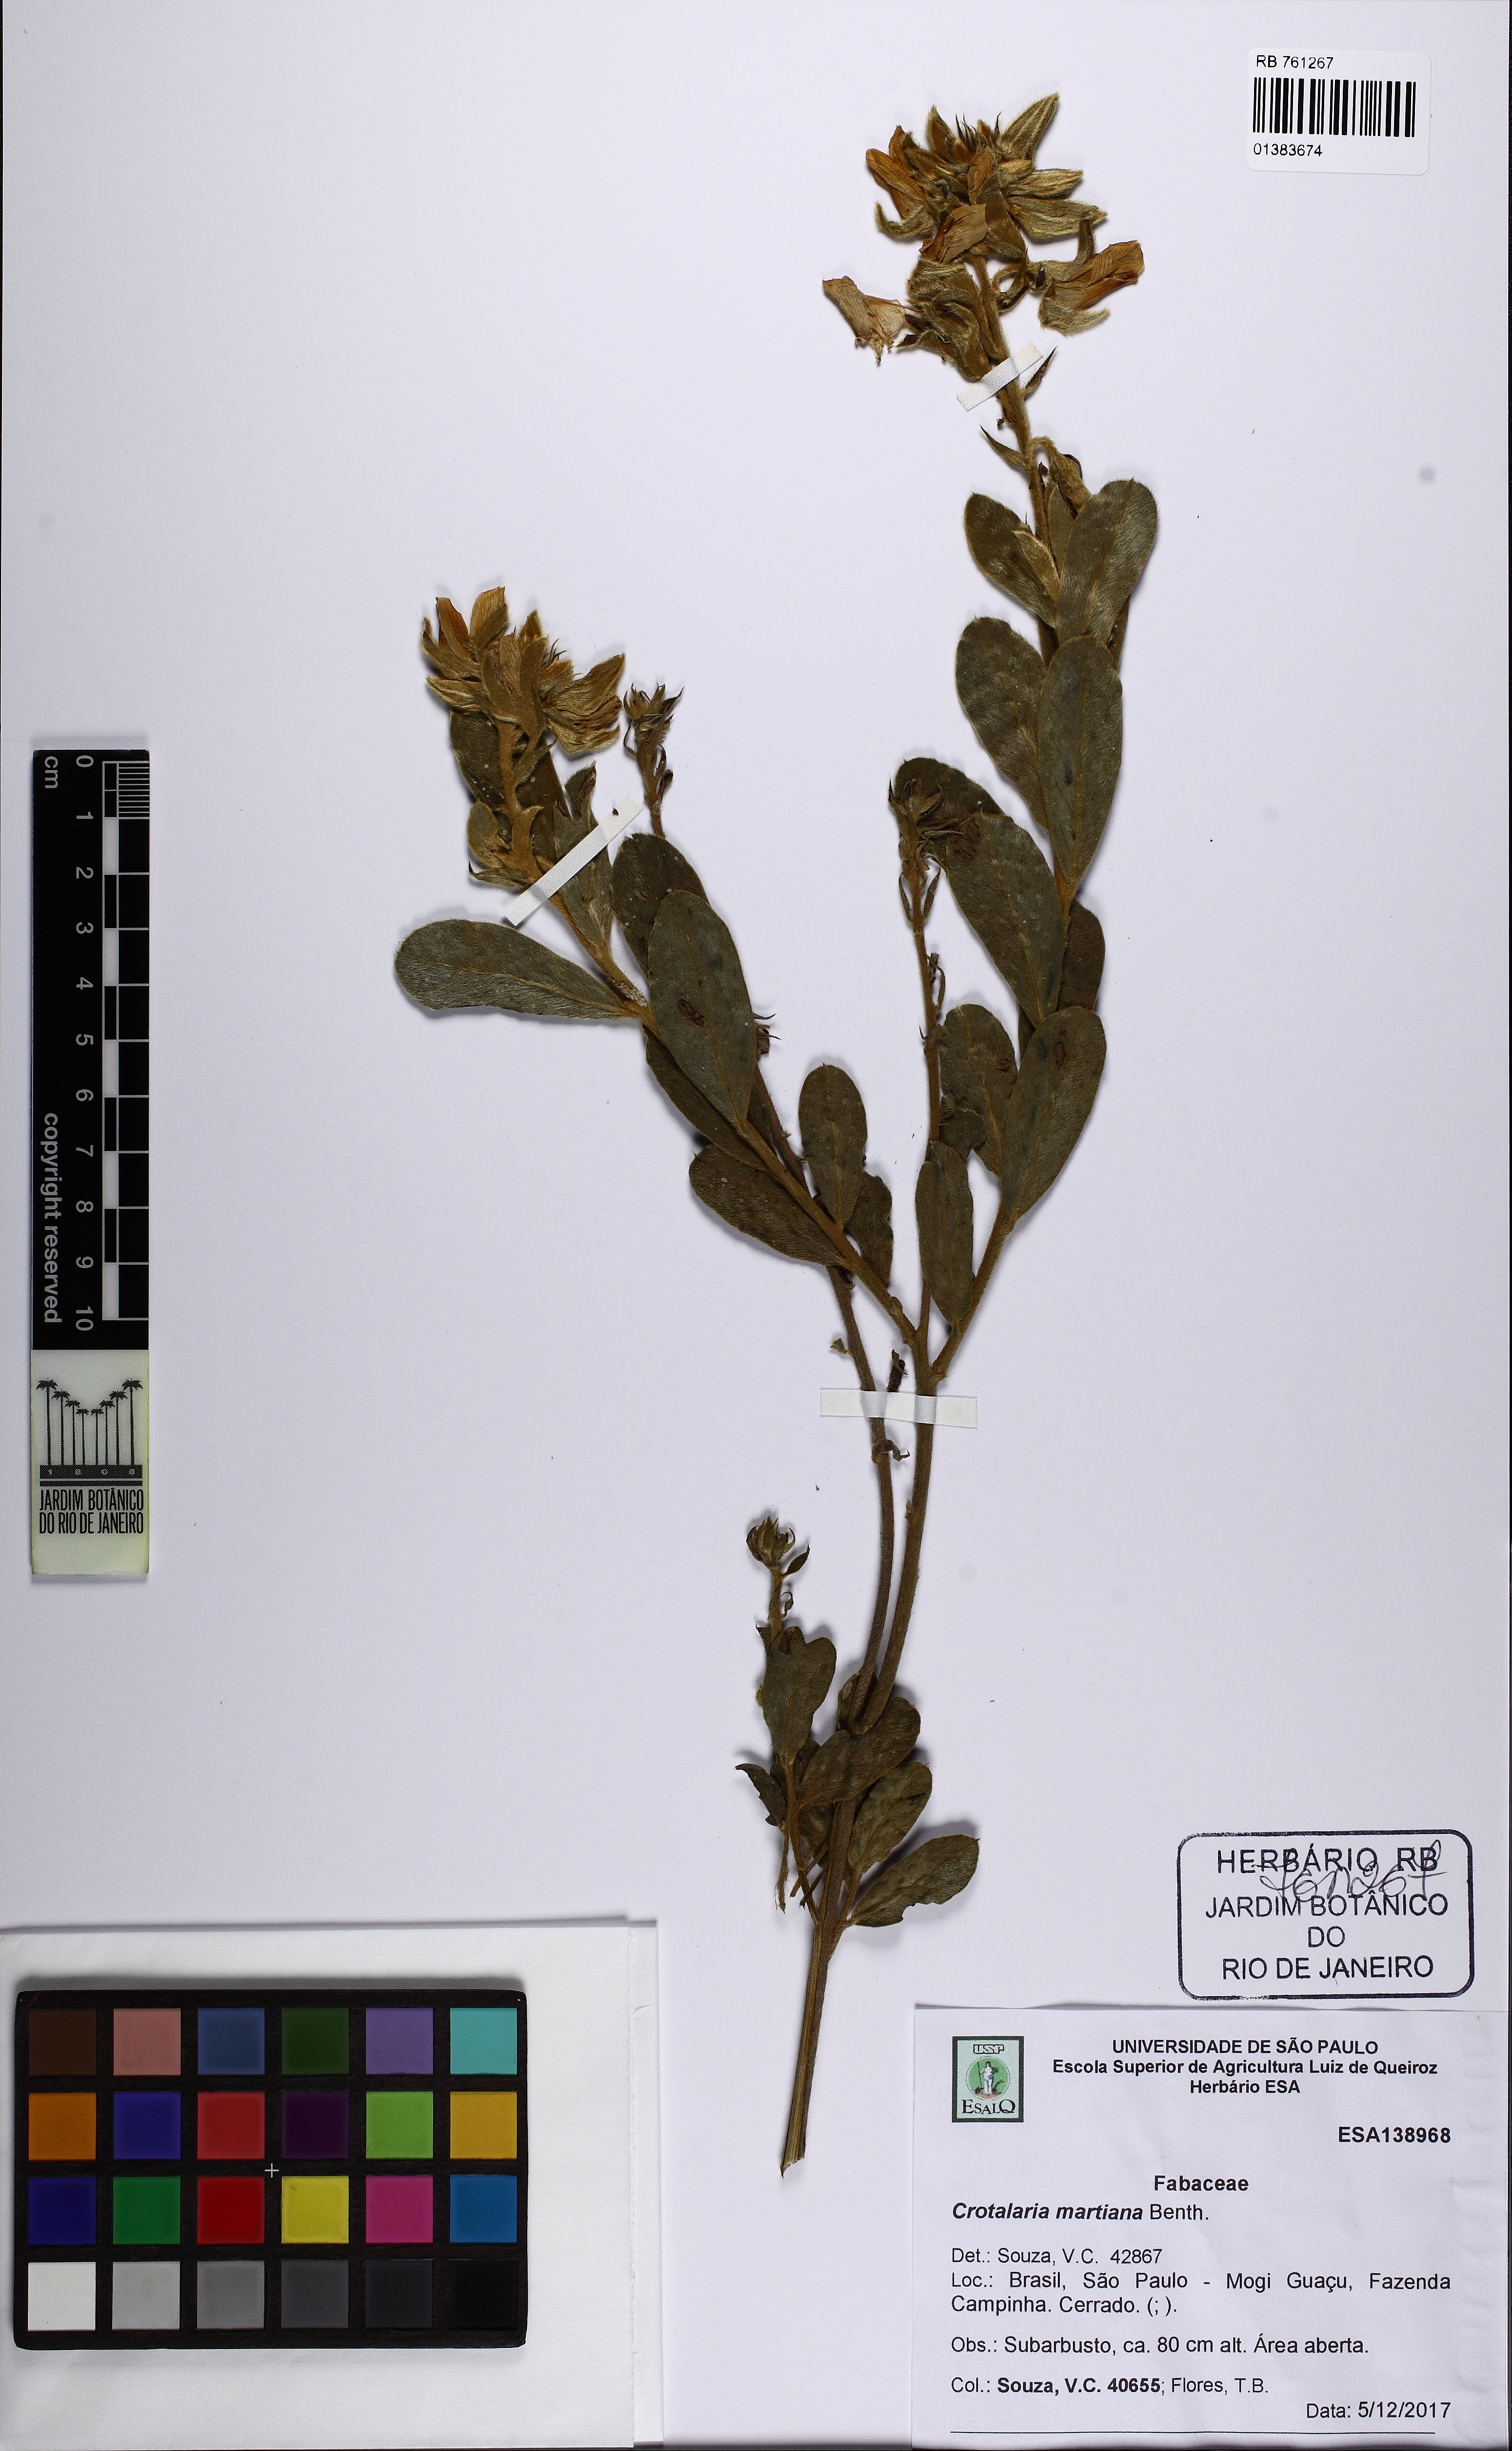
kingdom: Plantae
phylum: Tracheophyta
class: Magnoliopsida
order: Fabales
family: Fabaceae
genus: Crotalaria
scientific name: Crotalaria martiana
